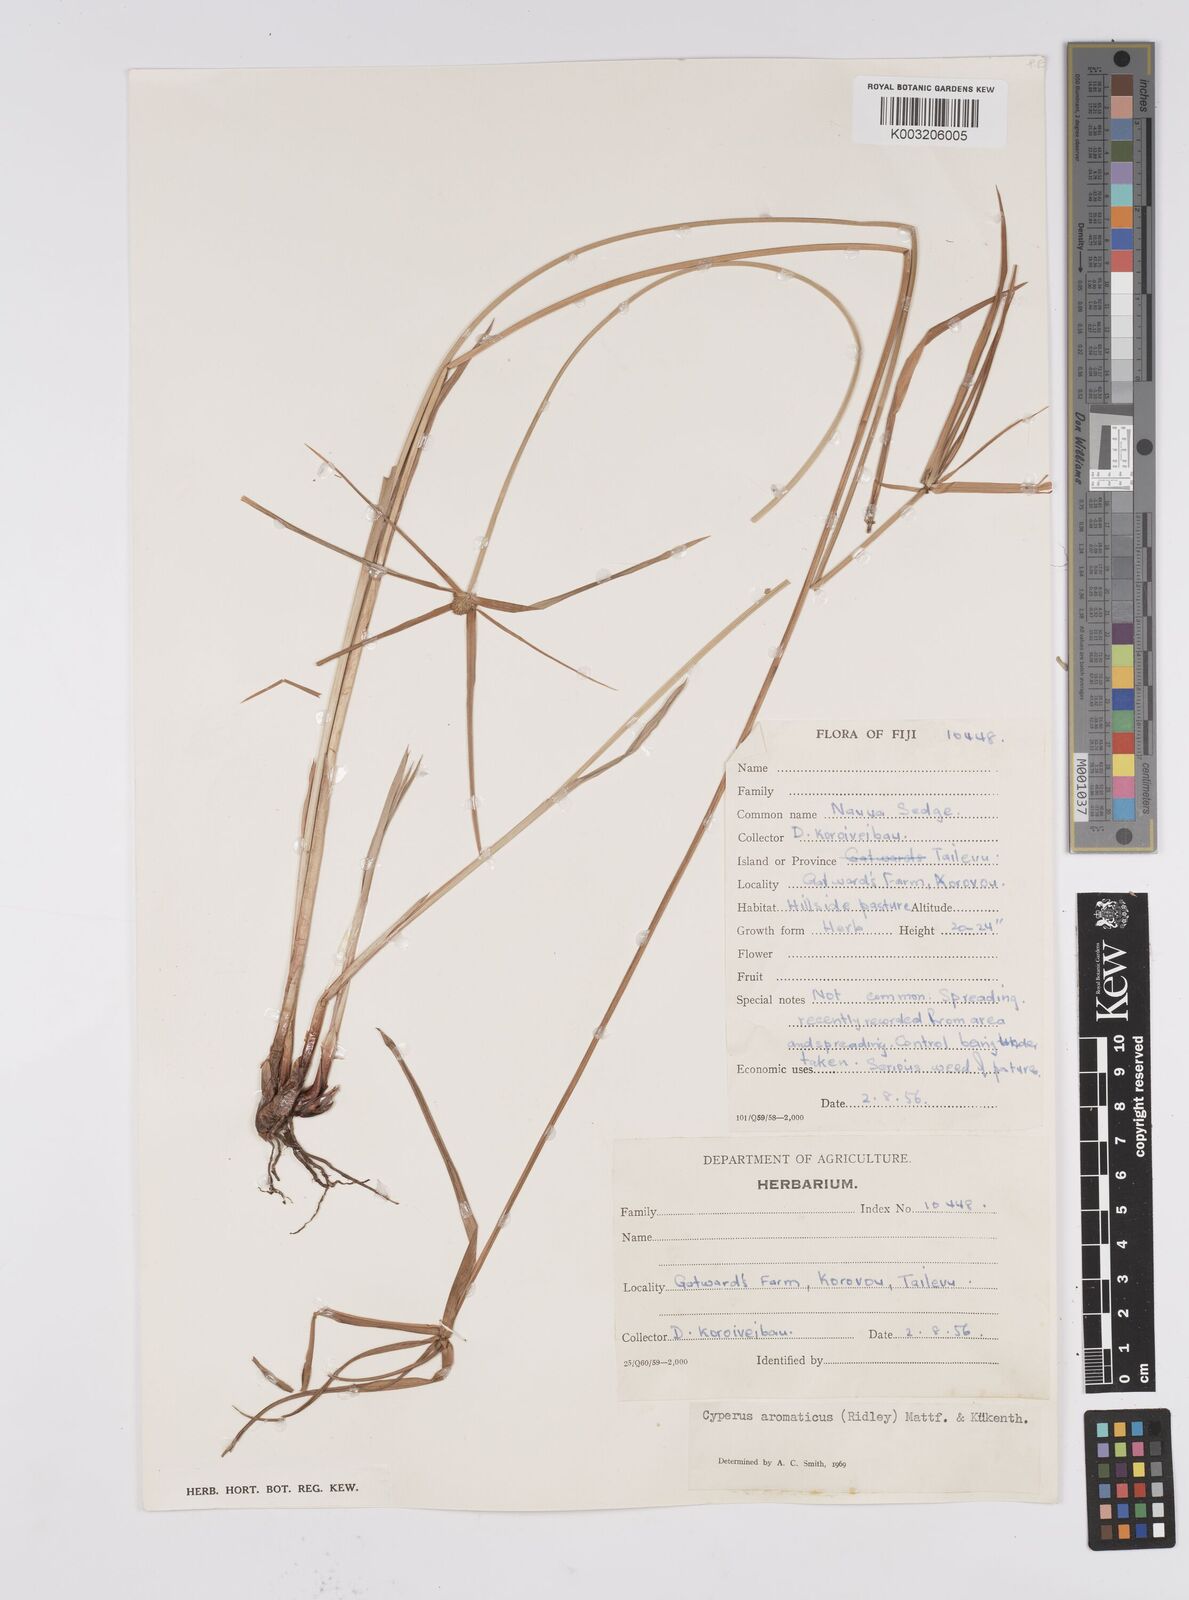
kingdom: Plantae
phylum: Tracheophyta
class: Liliopsida
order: Poales
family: Cyperaceae
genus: Cyperus
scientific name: Cyperus bulbosus
